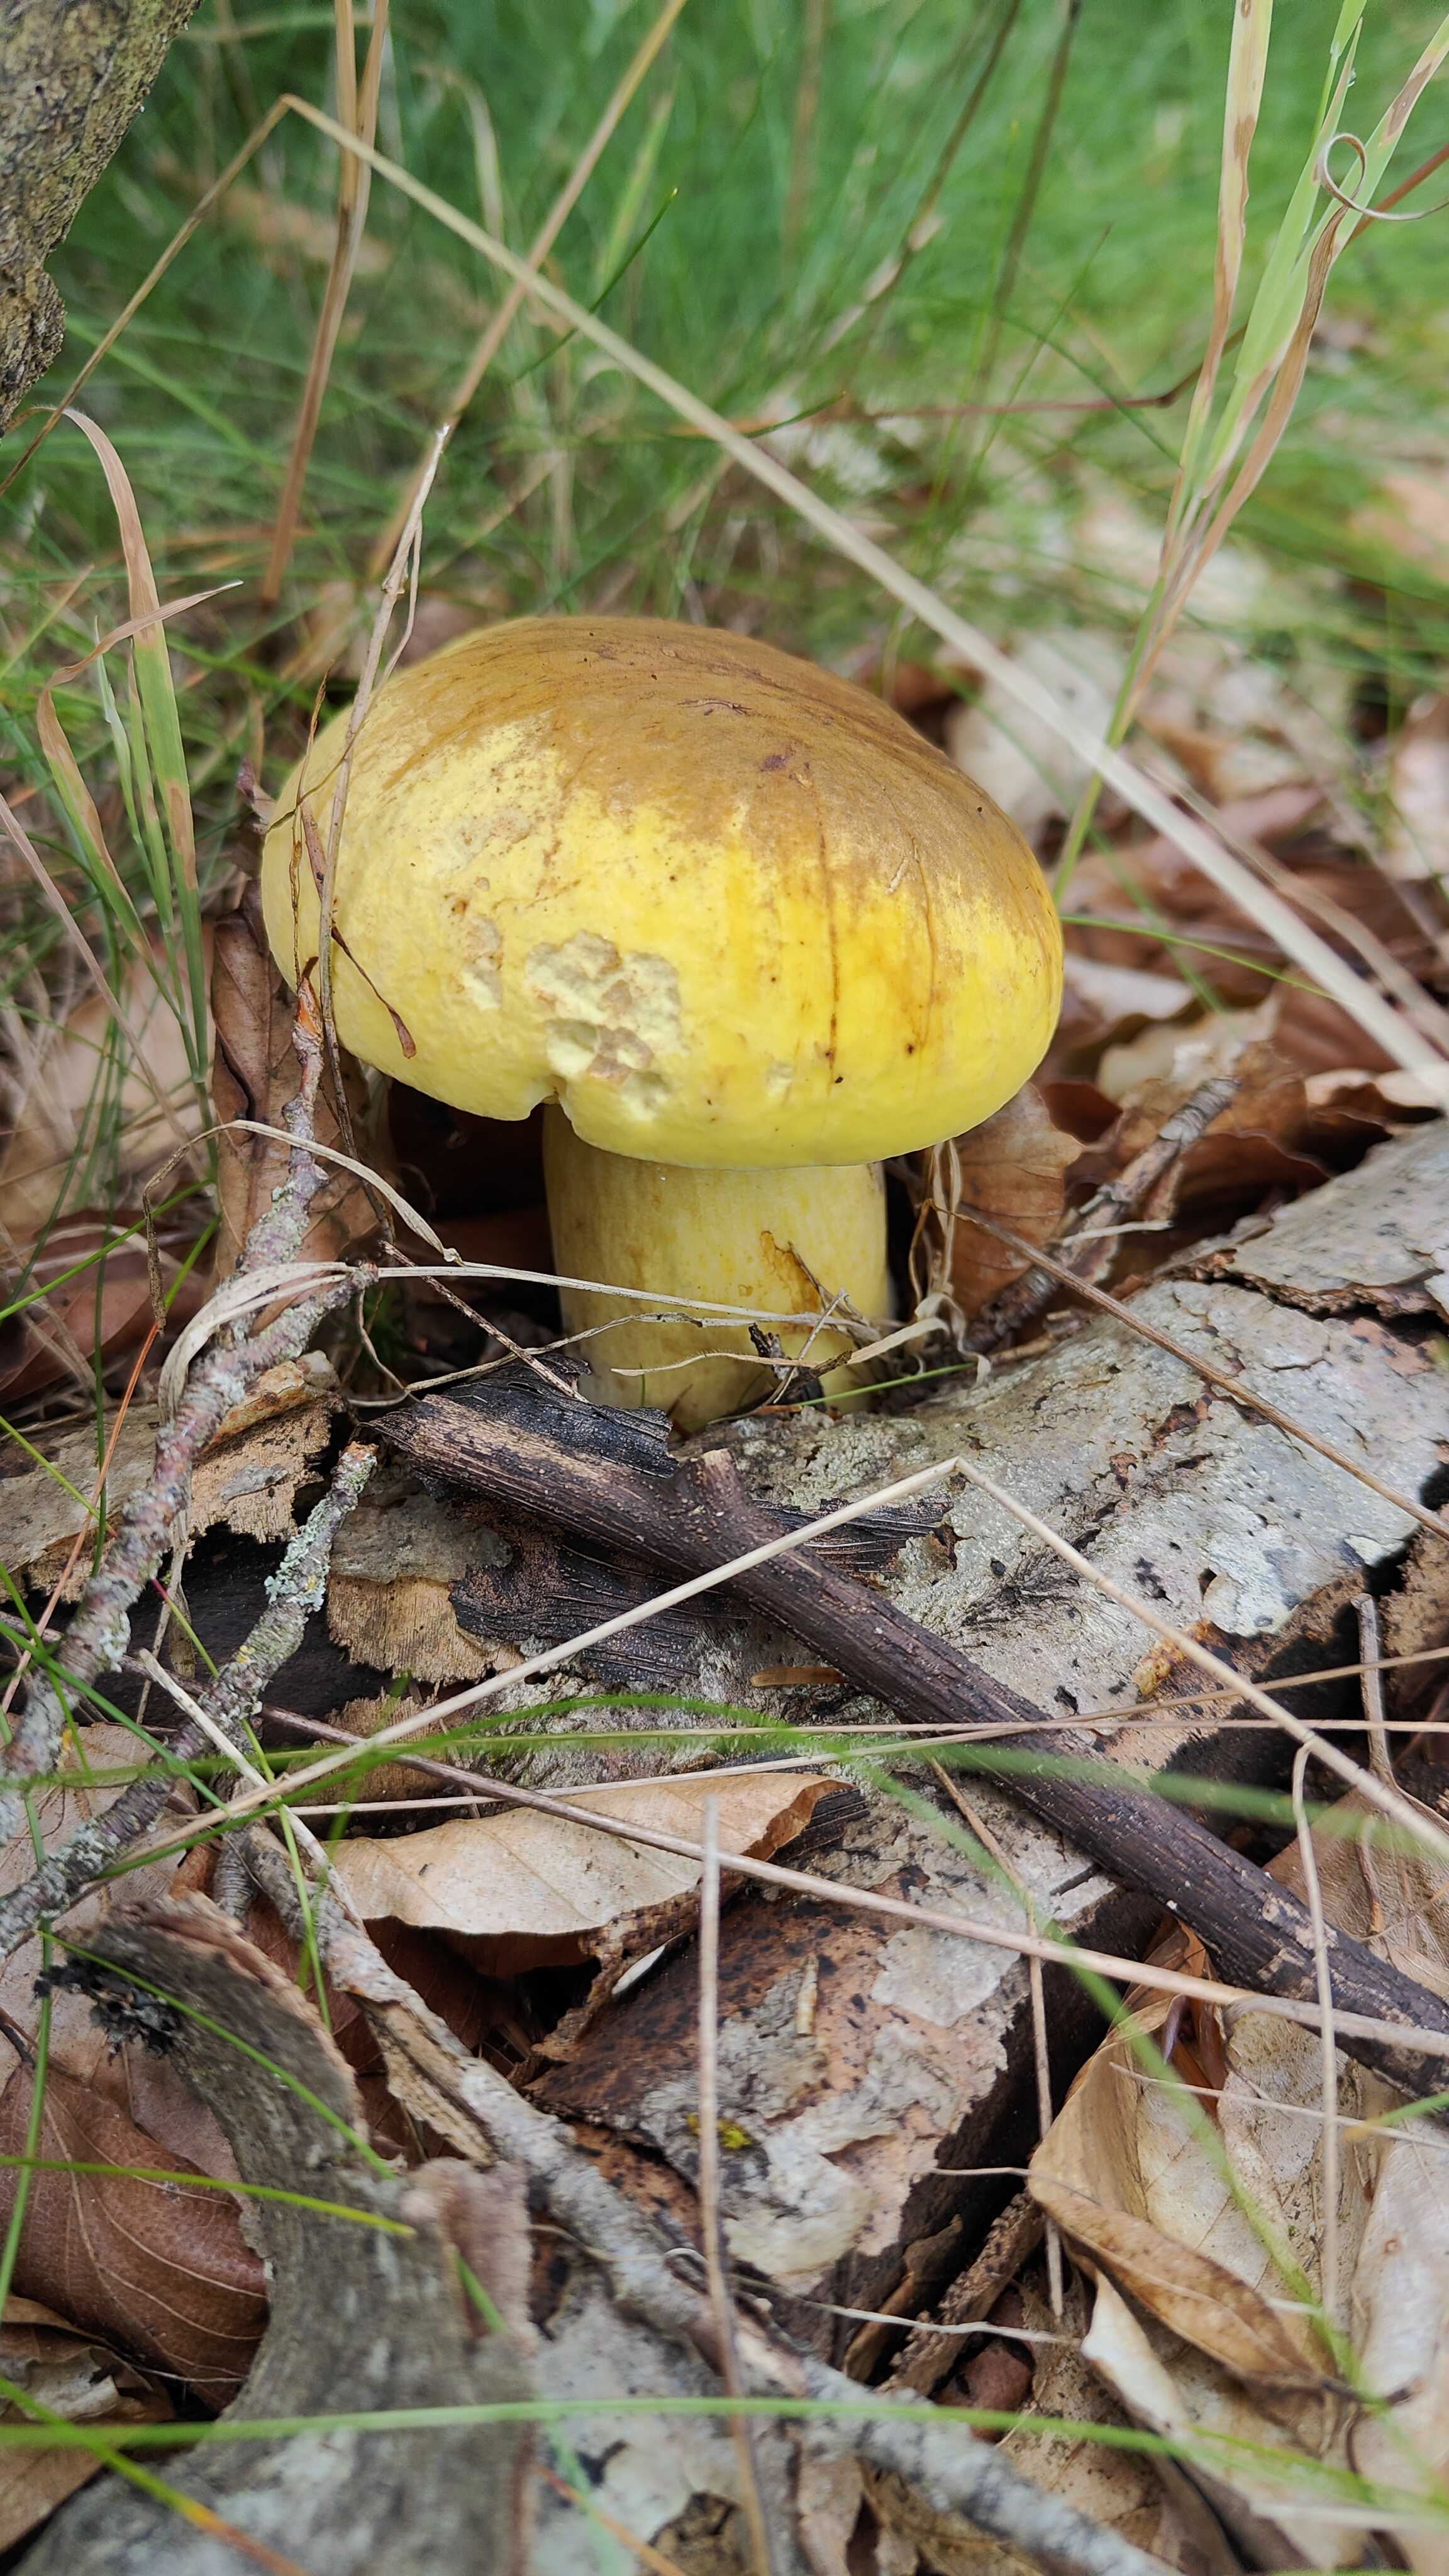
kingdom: Fungi
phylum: Basidiomycota
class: Agaricomycetes
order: Boletales
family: Boletaceae
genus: Neoboletus
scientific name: Neoboletus praestigiator
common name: gul indigorørhat
